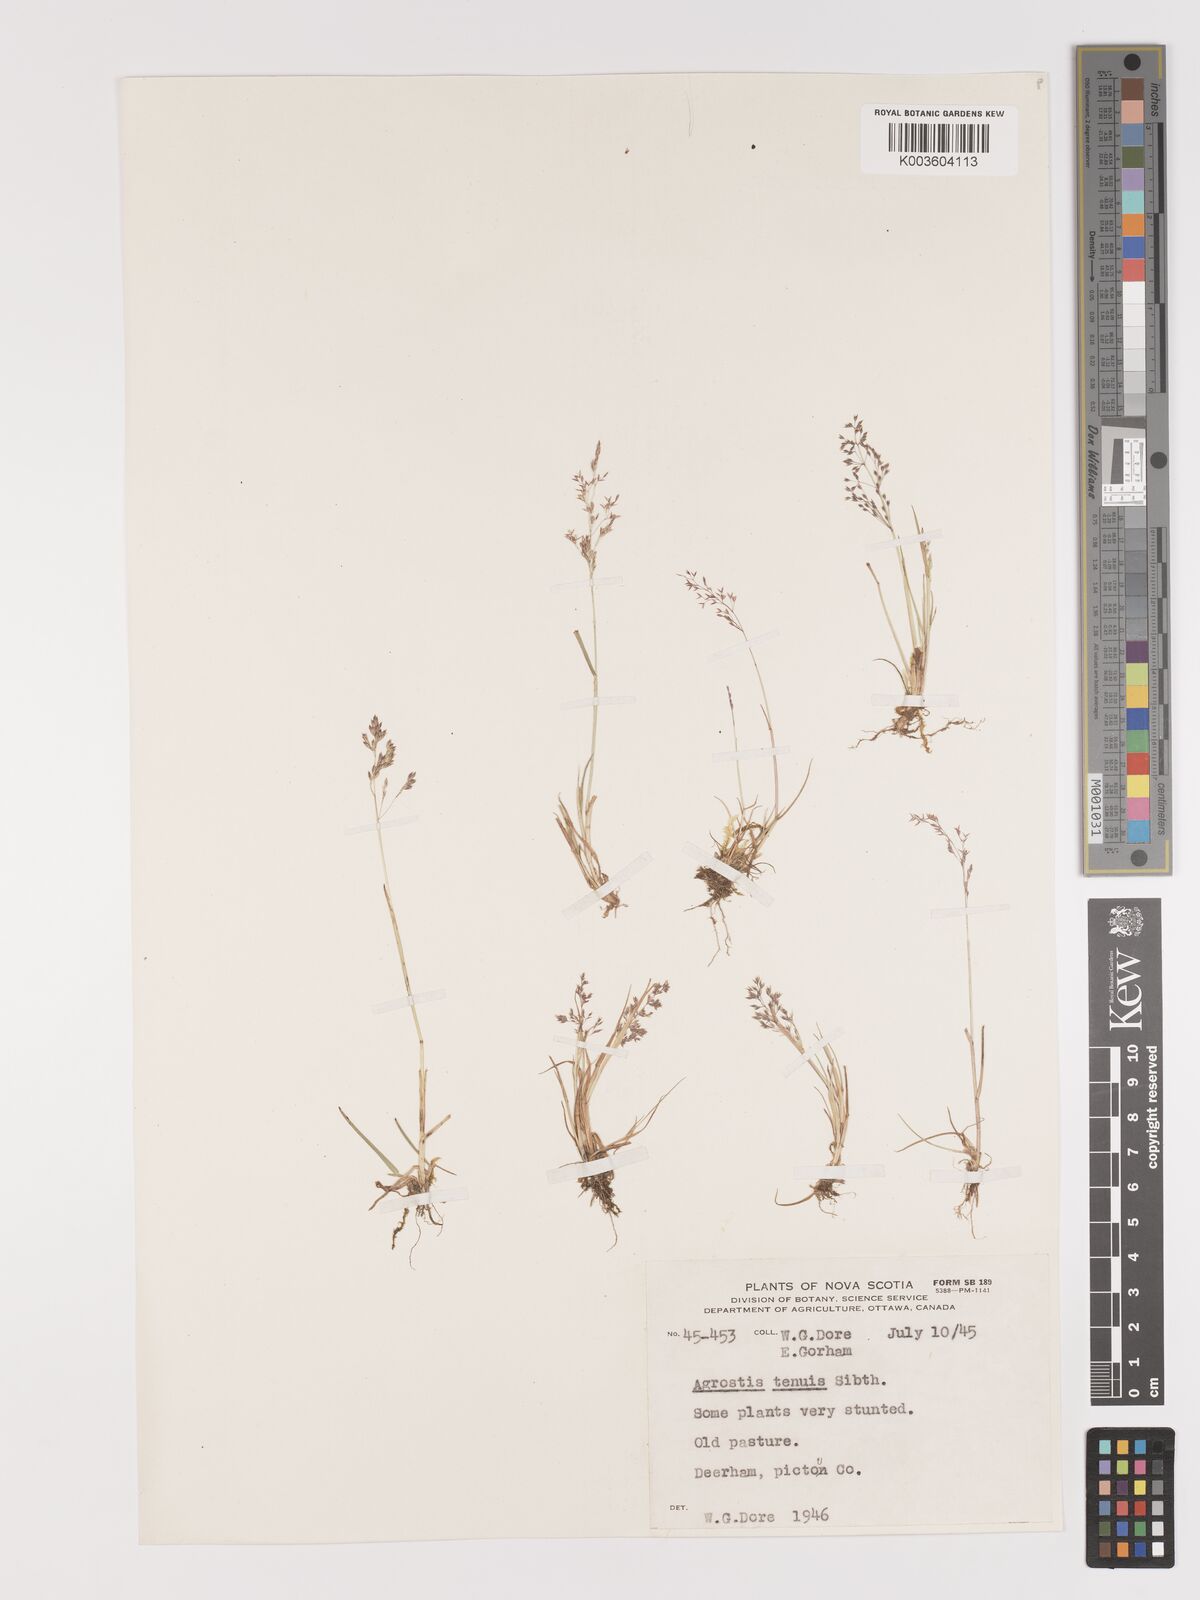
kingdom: Plantae
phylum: Tracheophyta
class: Liliopsida
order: Poales
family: Poaceae
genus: Agrostis
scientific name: Agrostis capillaris
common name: Colonial bentgrass
